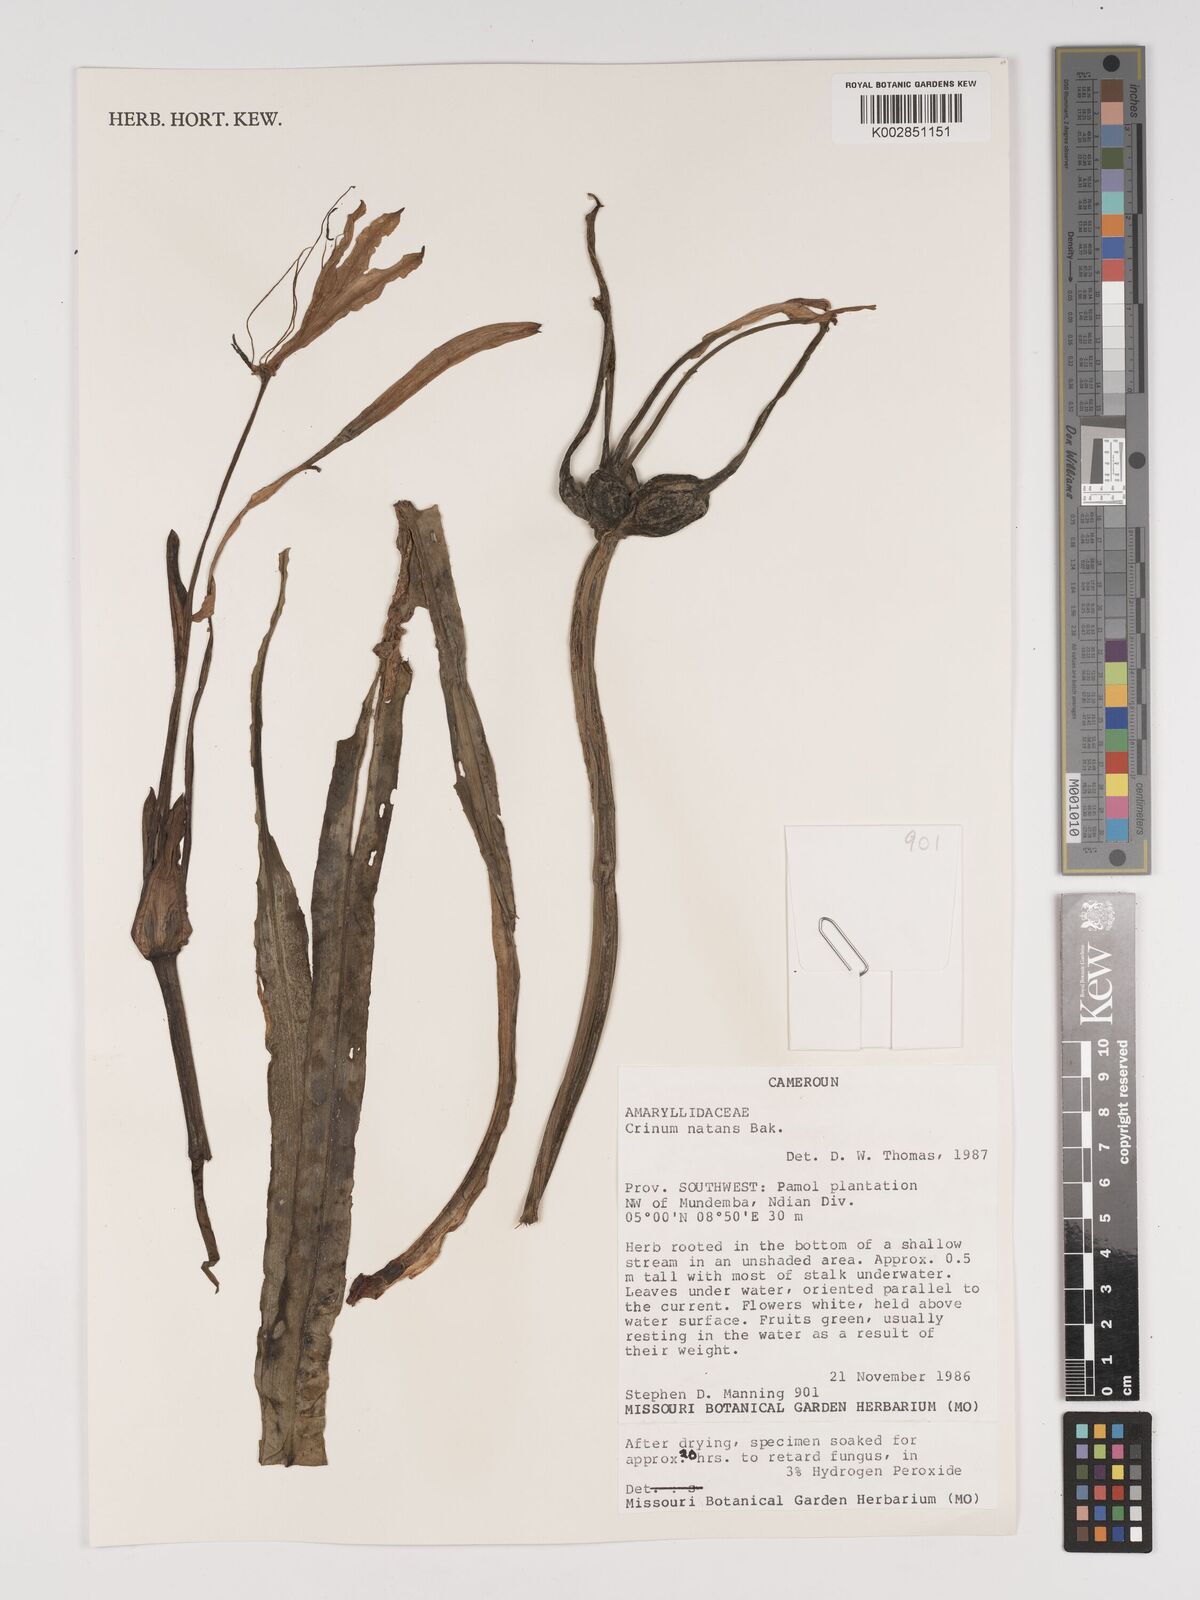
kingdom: Plantae
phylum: Tracheophyta
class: Liliopsida
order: Asparagales
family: Amaryllidaceae
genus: Crinum
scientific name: Crinum natans
